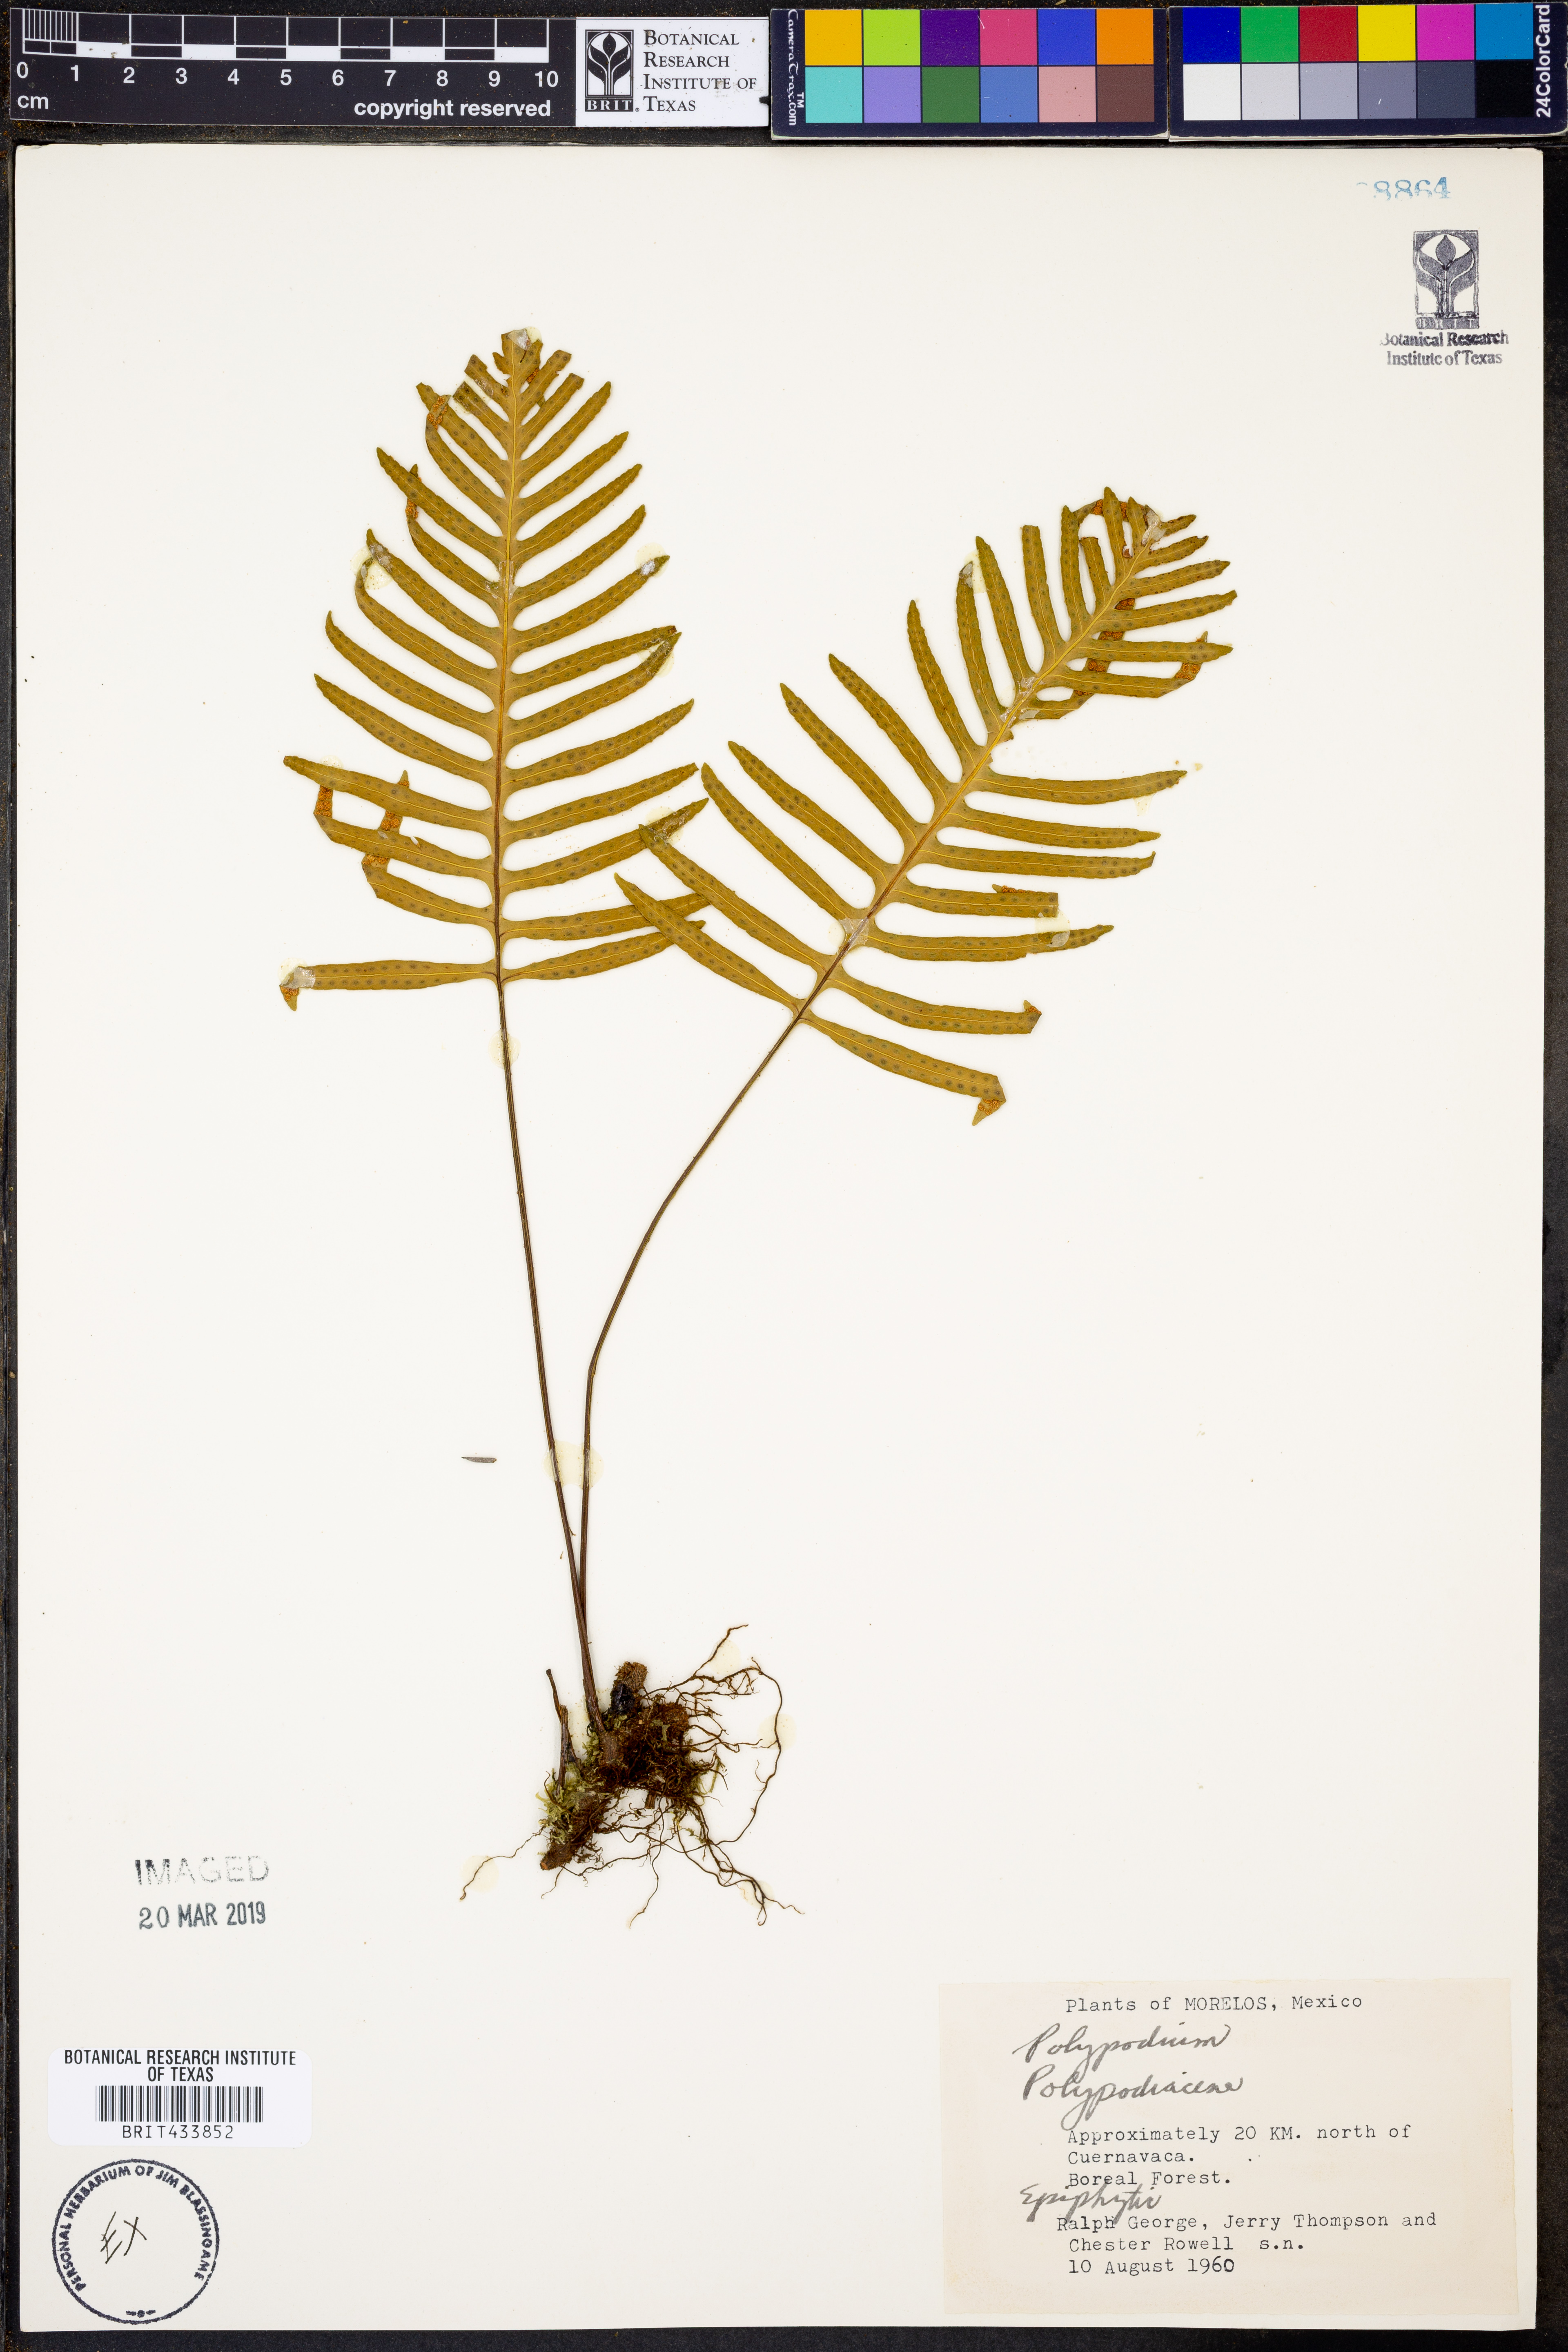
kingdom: Plantae
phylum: Tracheophyta
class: Polypodiopsida
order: Polypodiales
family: Polypodiaceae
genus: Polypodium
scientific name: Polypodium
